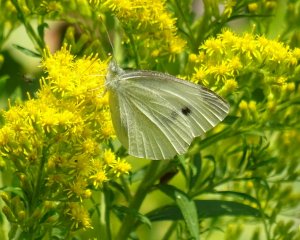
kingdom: Animalia
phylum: Arthropoda
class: Insecta
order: Lepidoptera
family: Pieridae
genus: Pieris
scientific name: Pieris rapae
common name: Cabbage White
